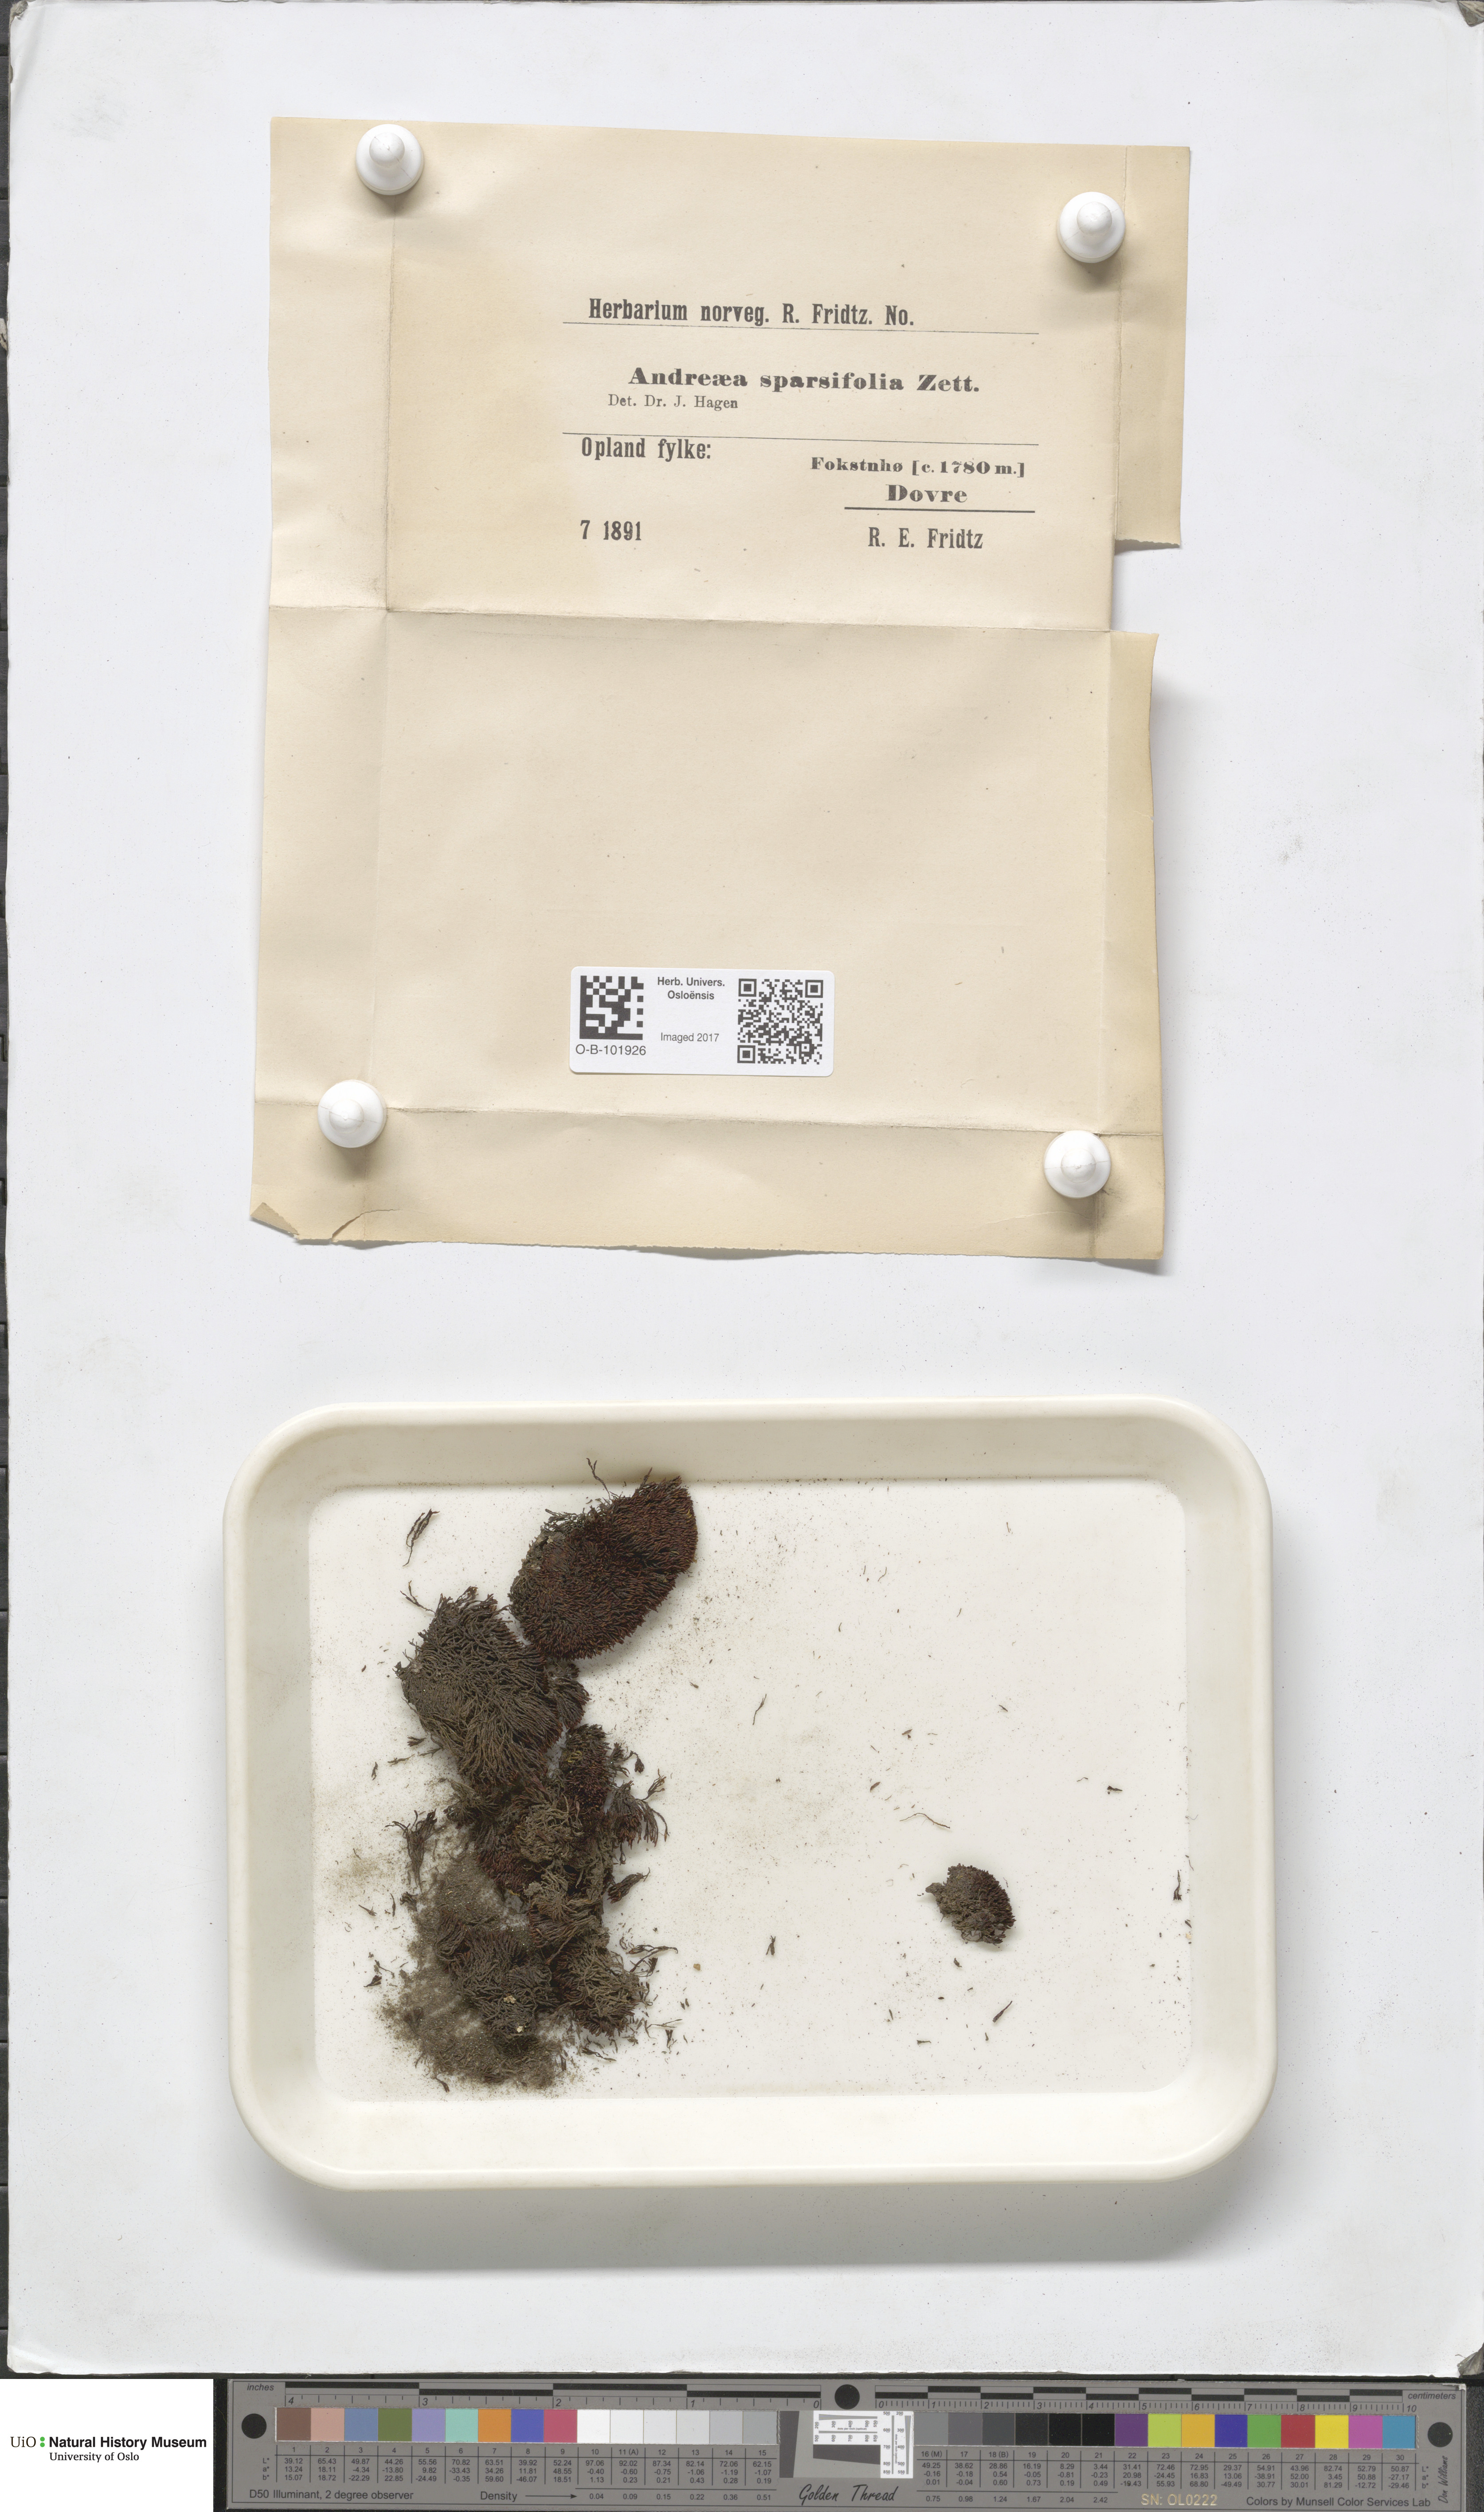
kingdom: Plantae
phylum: Bryophyta
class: Andreaeopsida
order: Andreaeales
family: Andreaeaceae
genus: Andreaea
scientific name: Andreaea rupestris
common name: Black rock moss
